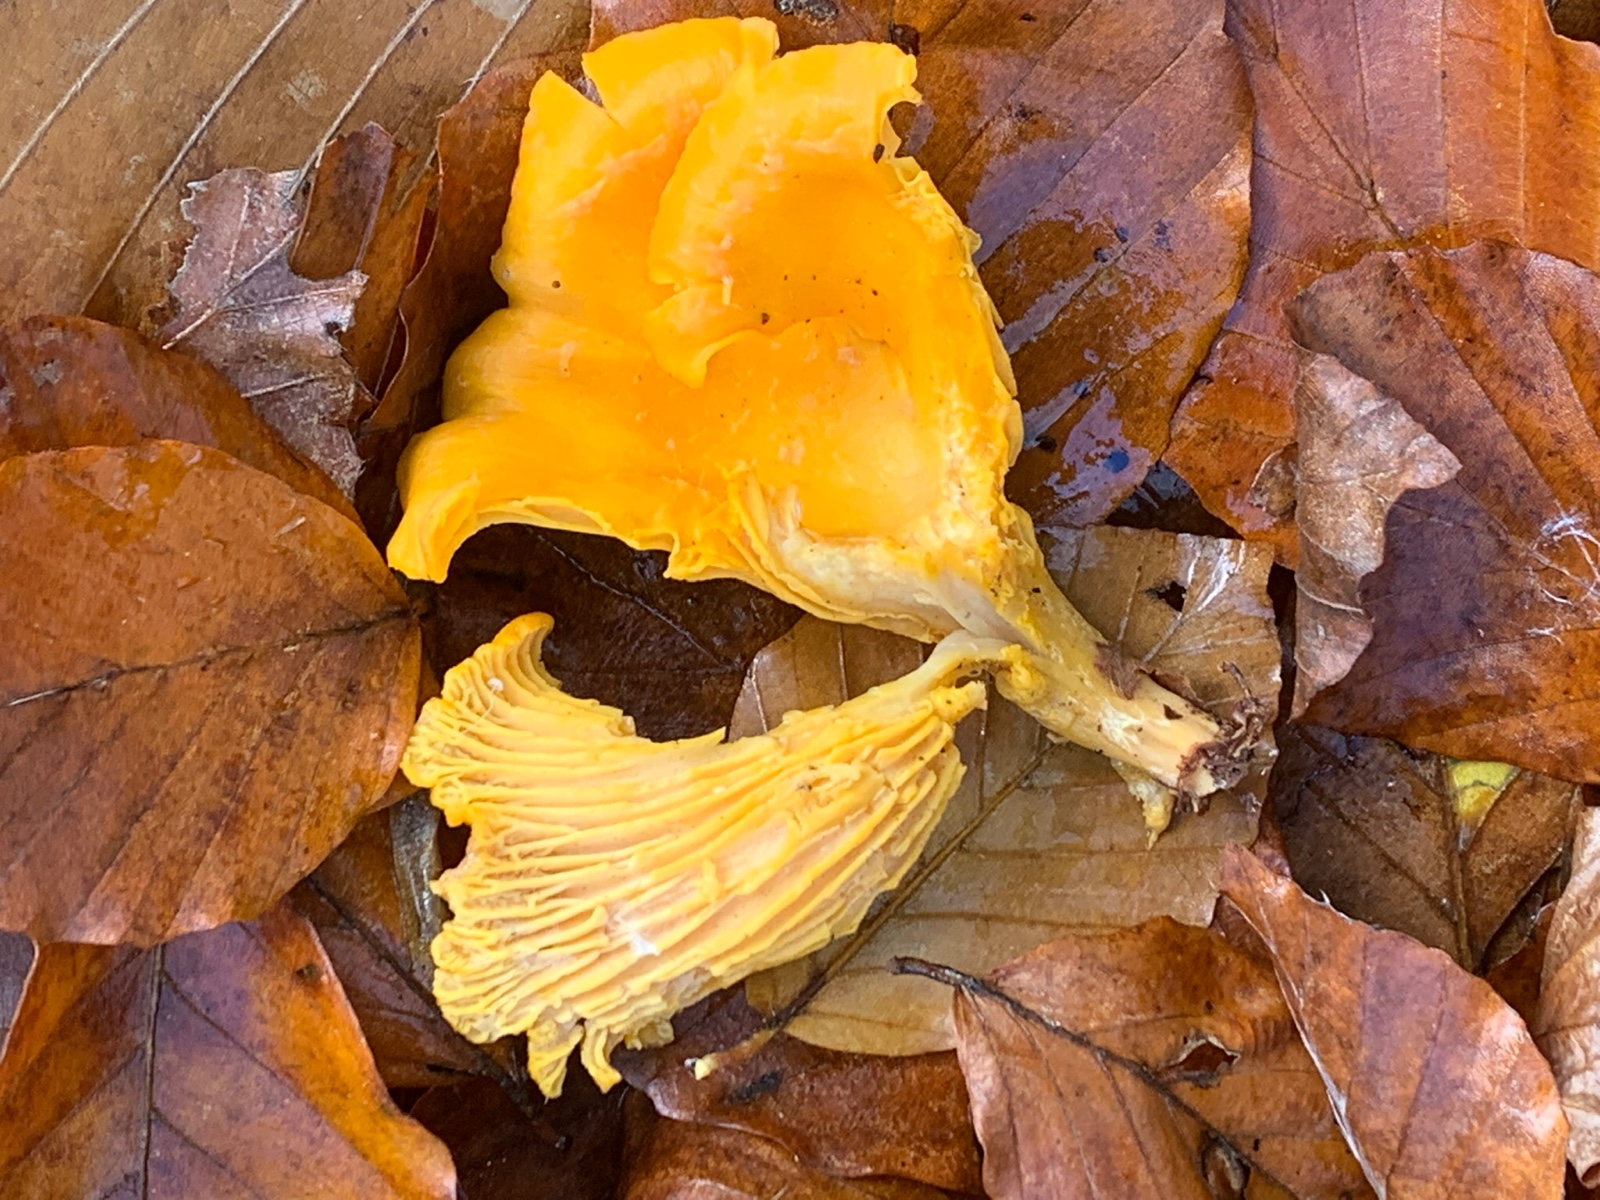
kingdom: Fungi
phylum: Basidiomycota
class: Agaricomycetes
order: Cantharellales
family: Hydnaceae
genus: Cantharellus
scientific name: Cantharellus pallens
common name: bleg kantarel
